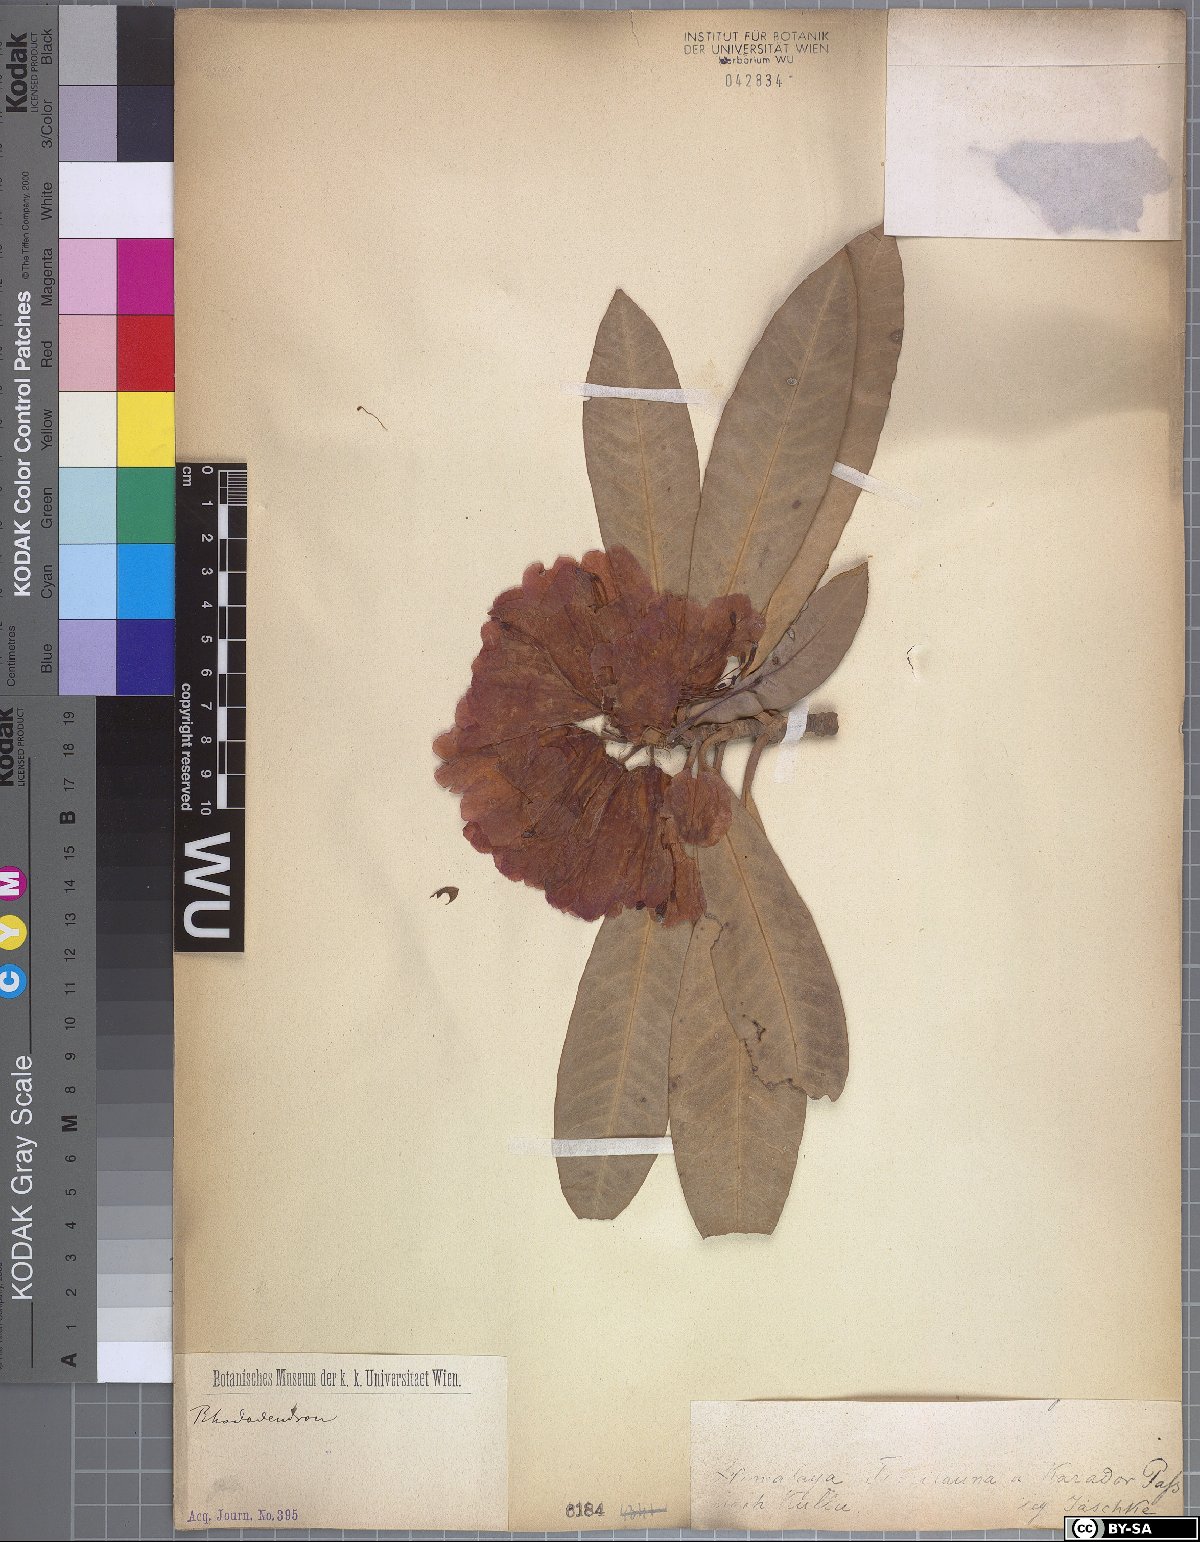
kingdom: Plantae
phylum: Tracheophyta
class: Magnoliopsida
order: Ericales
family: Ericaceae
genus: Rhododendron
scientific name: Rhododendron
